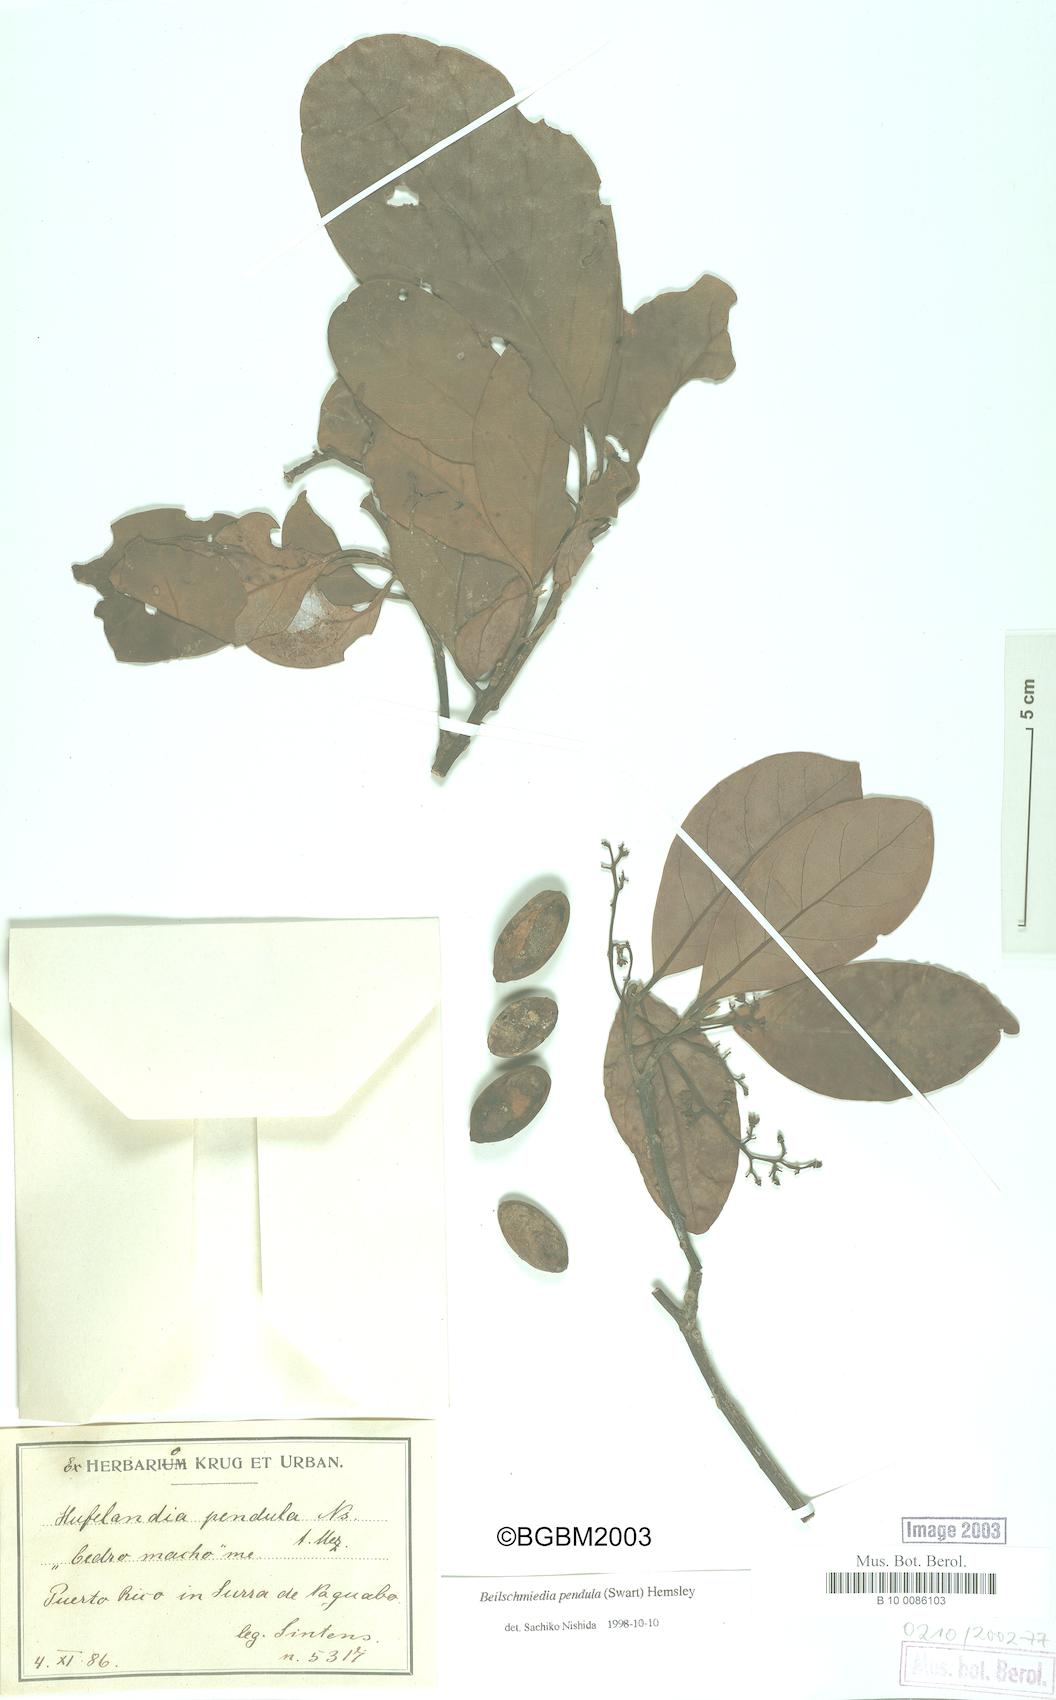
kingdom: Plantae
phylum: Tracheophyta
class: Magnoliopsida
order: Laurales
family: Lauraceae
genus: Beilschmiedia
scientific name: Beilschmiedia pendula
